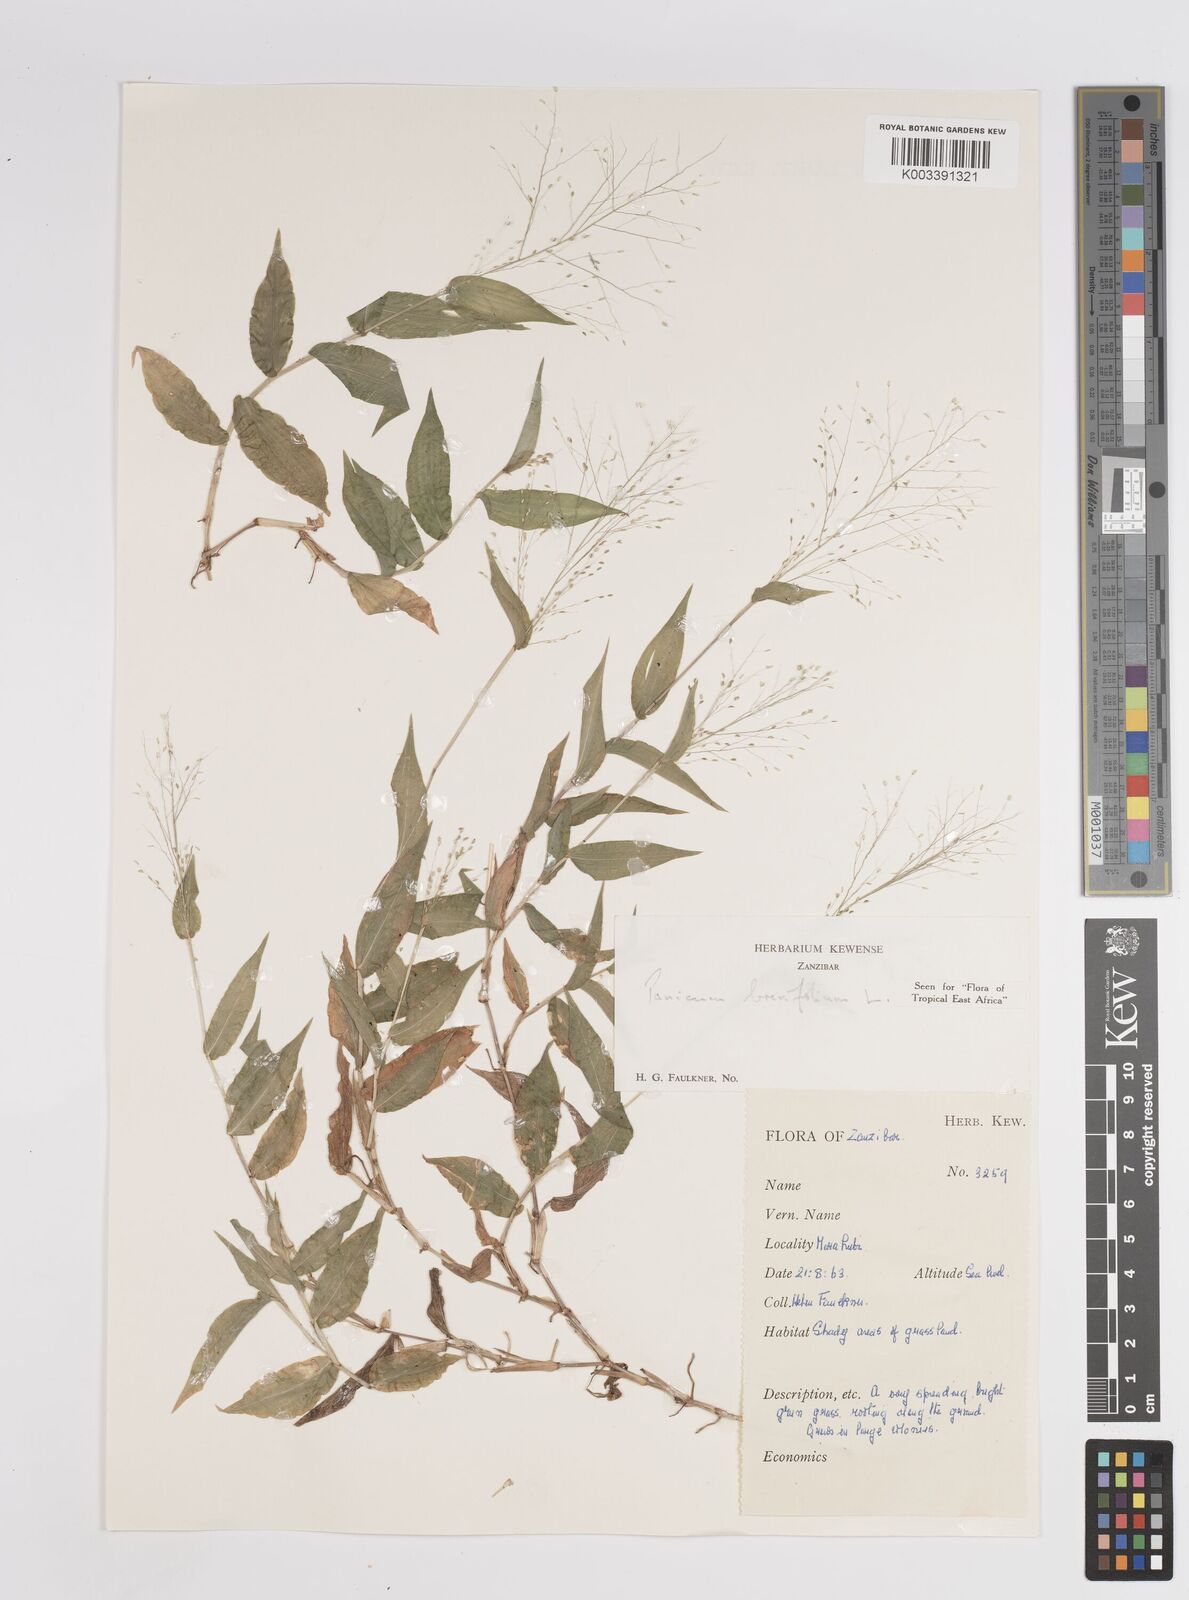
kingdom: Plantae
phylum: Tracheophyta
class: Liliopsida
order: Poales
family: Poaceae
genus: Panicum
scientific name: Panicum brevifolium
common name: Shortleaf panic grass
